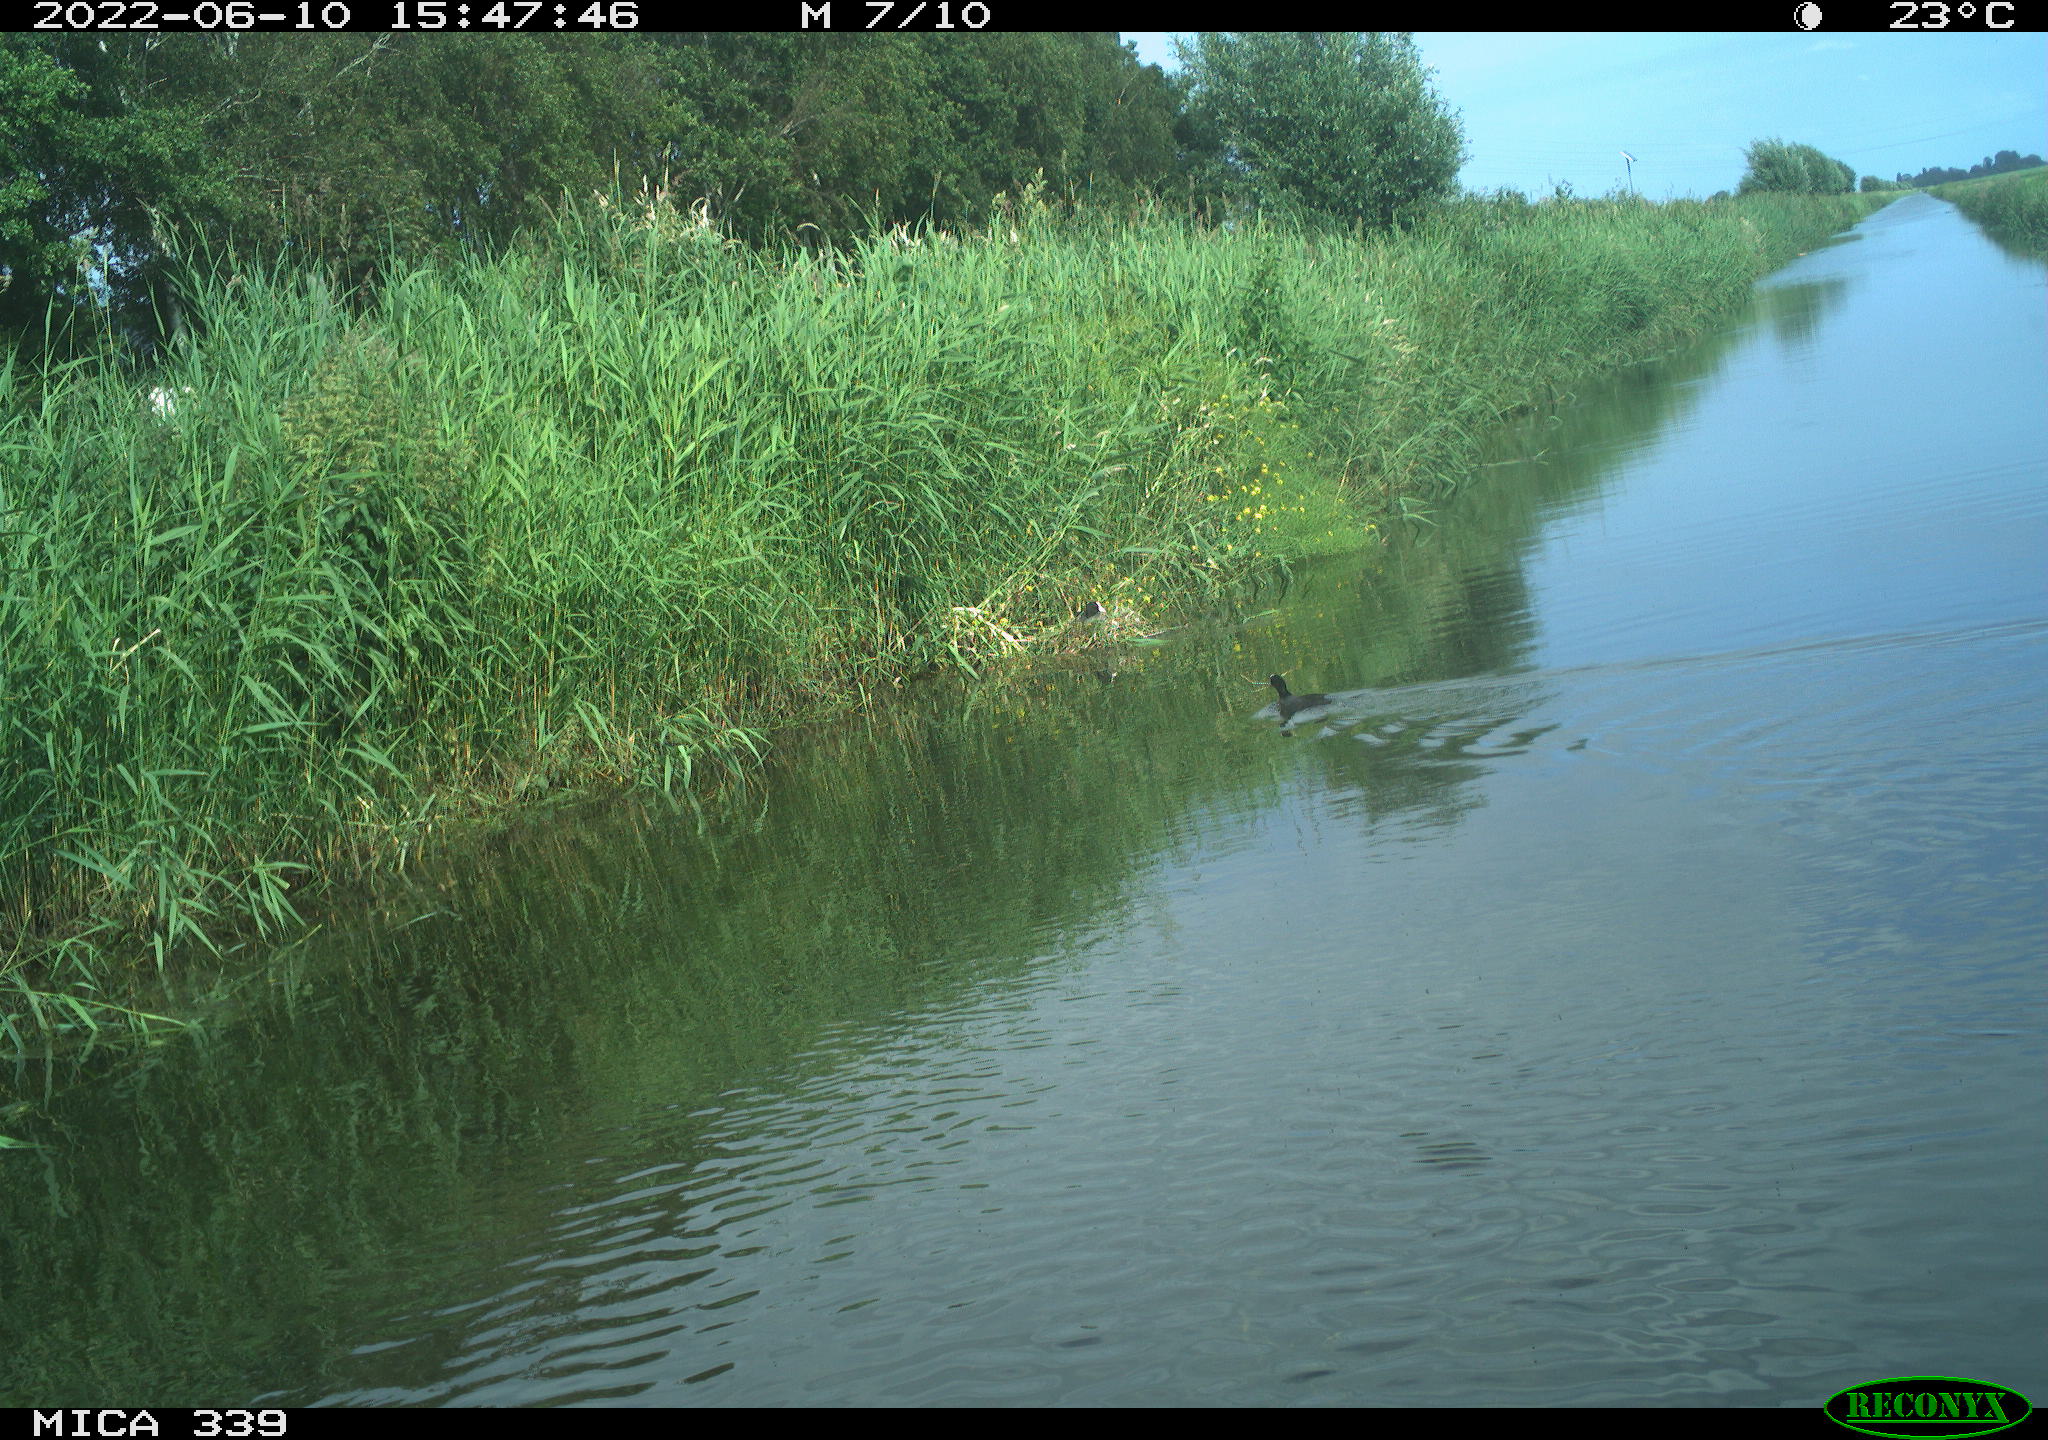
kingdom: Animalia
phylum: Chordata
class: Aves
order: Gruiformes
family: Rallidae
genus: Fulica
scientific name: Fulica atra
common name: Eurasian coot
